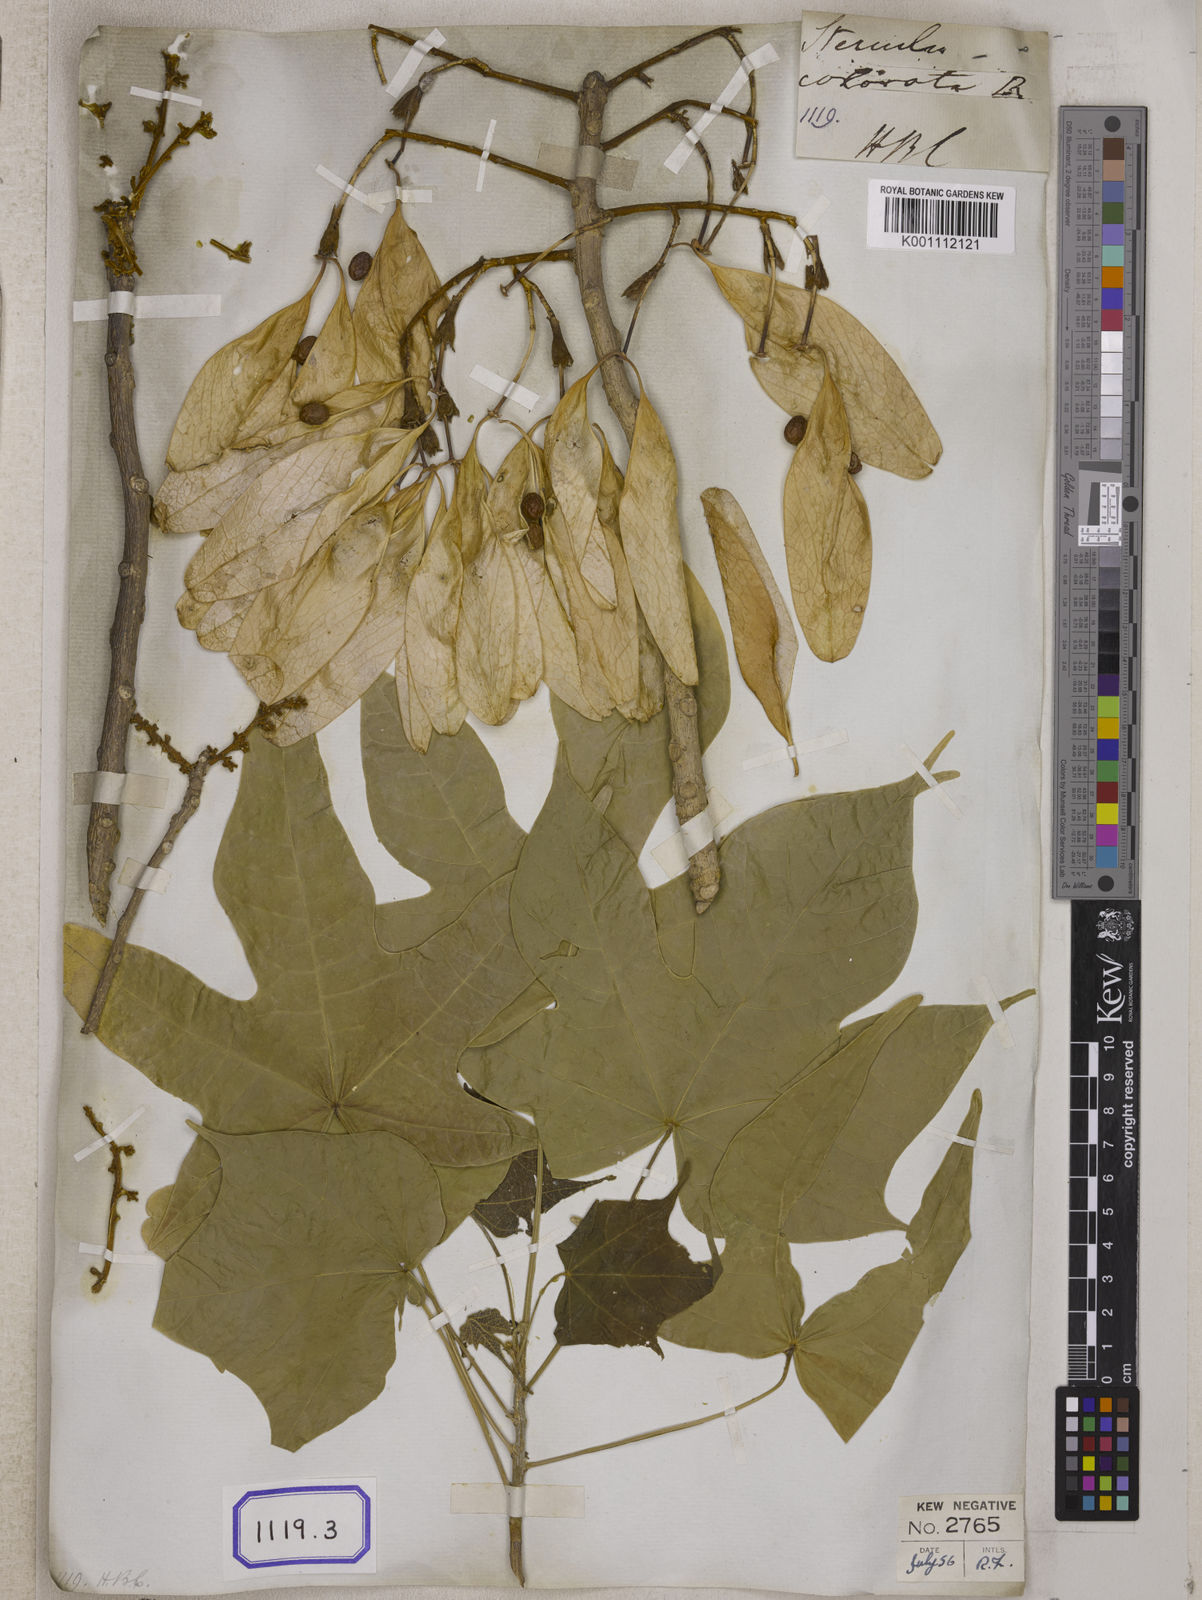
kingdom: Plantae
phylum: Tracheophyta
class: Magnoliopsida
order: Malvales
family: Malvaceae
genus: Firmiana
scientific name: Firmiana colorata
